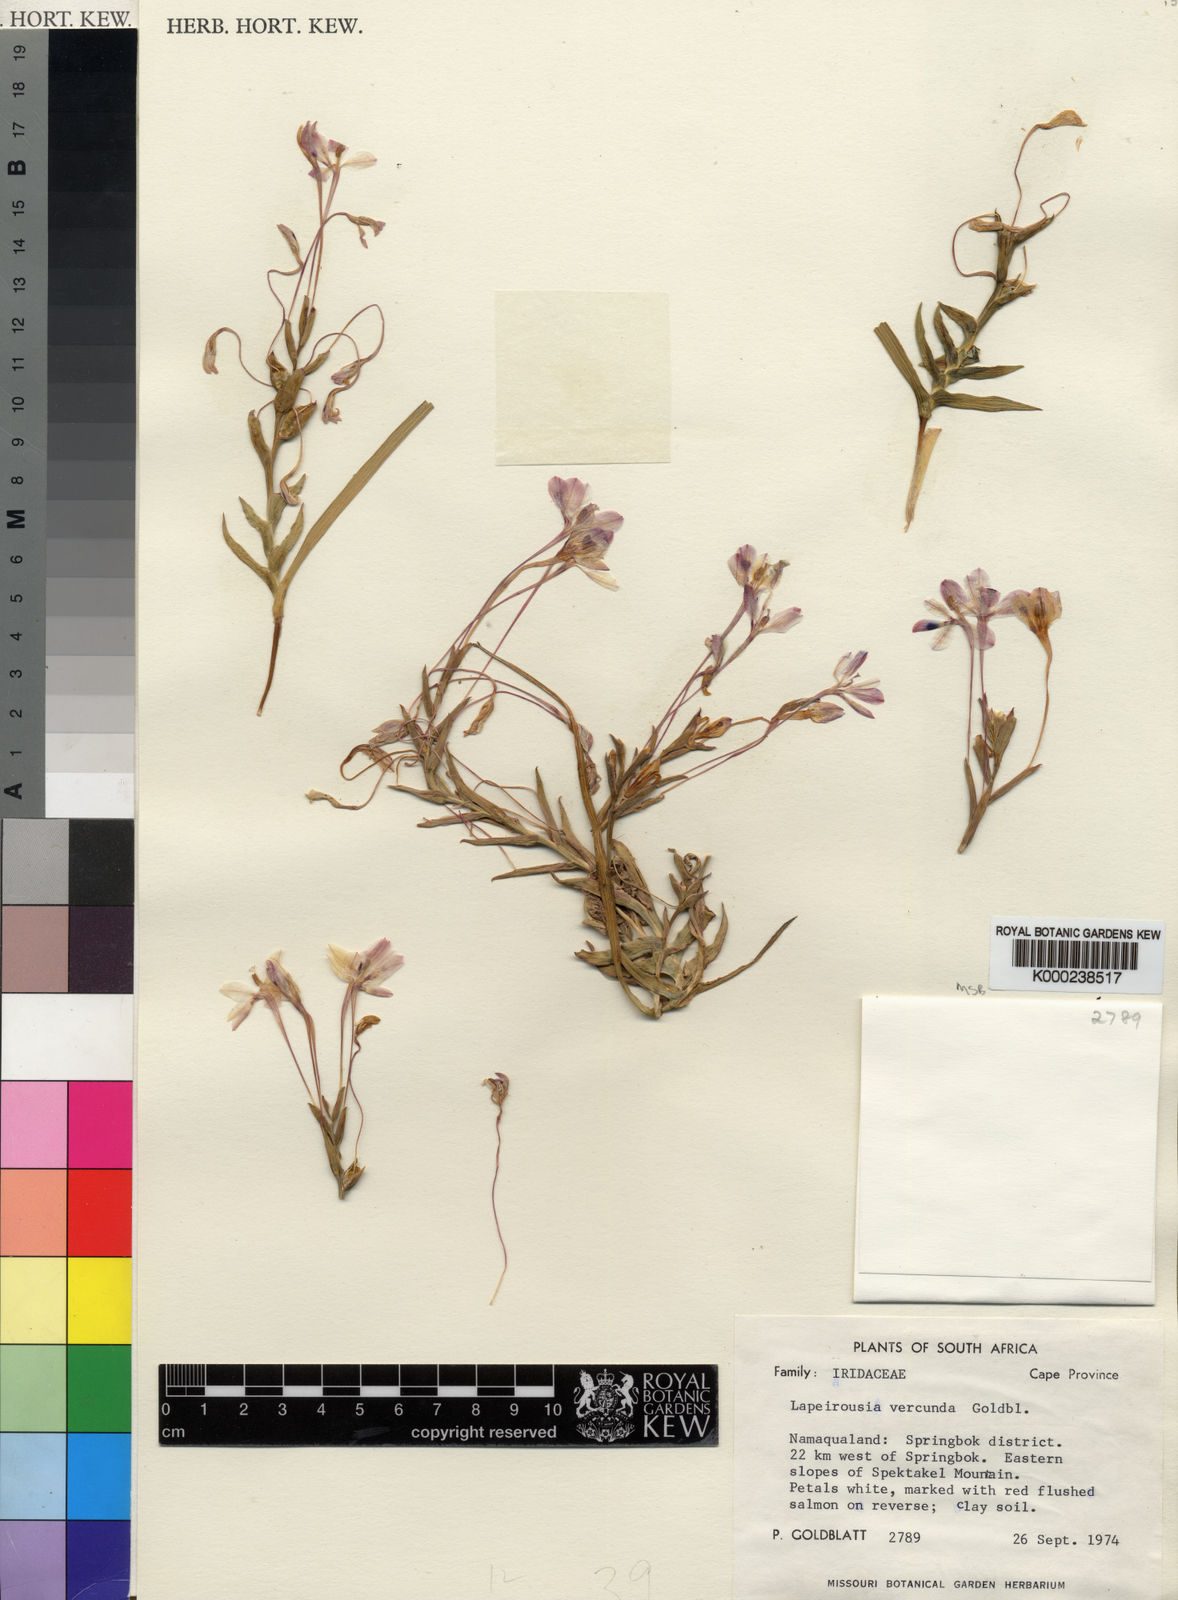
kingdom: Plantae
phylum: Tracheophyta
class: Liliopsida
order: Asparagales
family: Iridaceae
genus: Lapeirousia
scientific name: Lapeirousia verecunda
